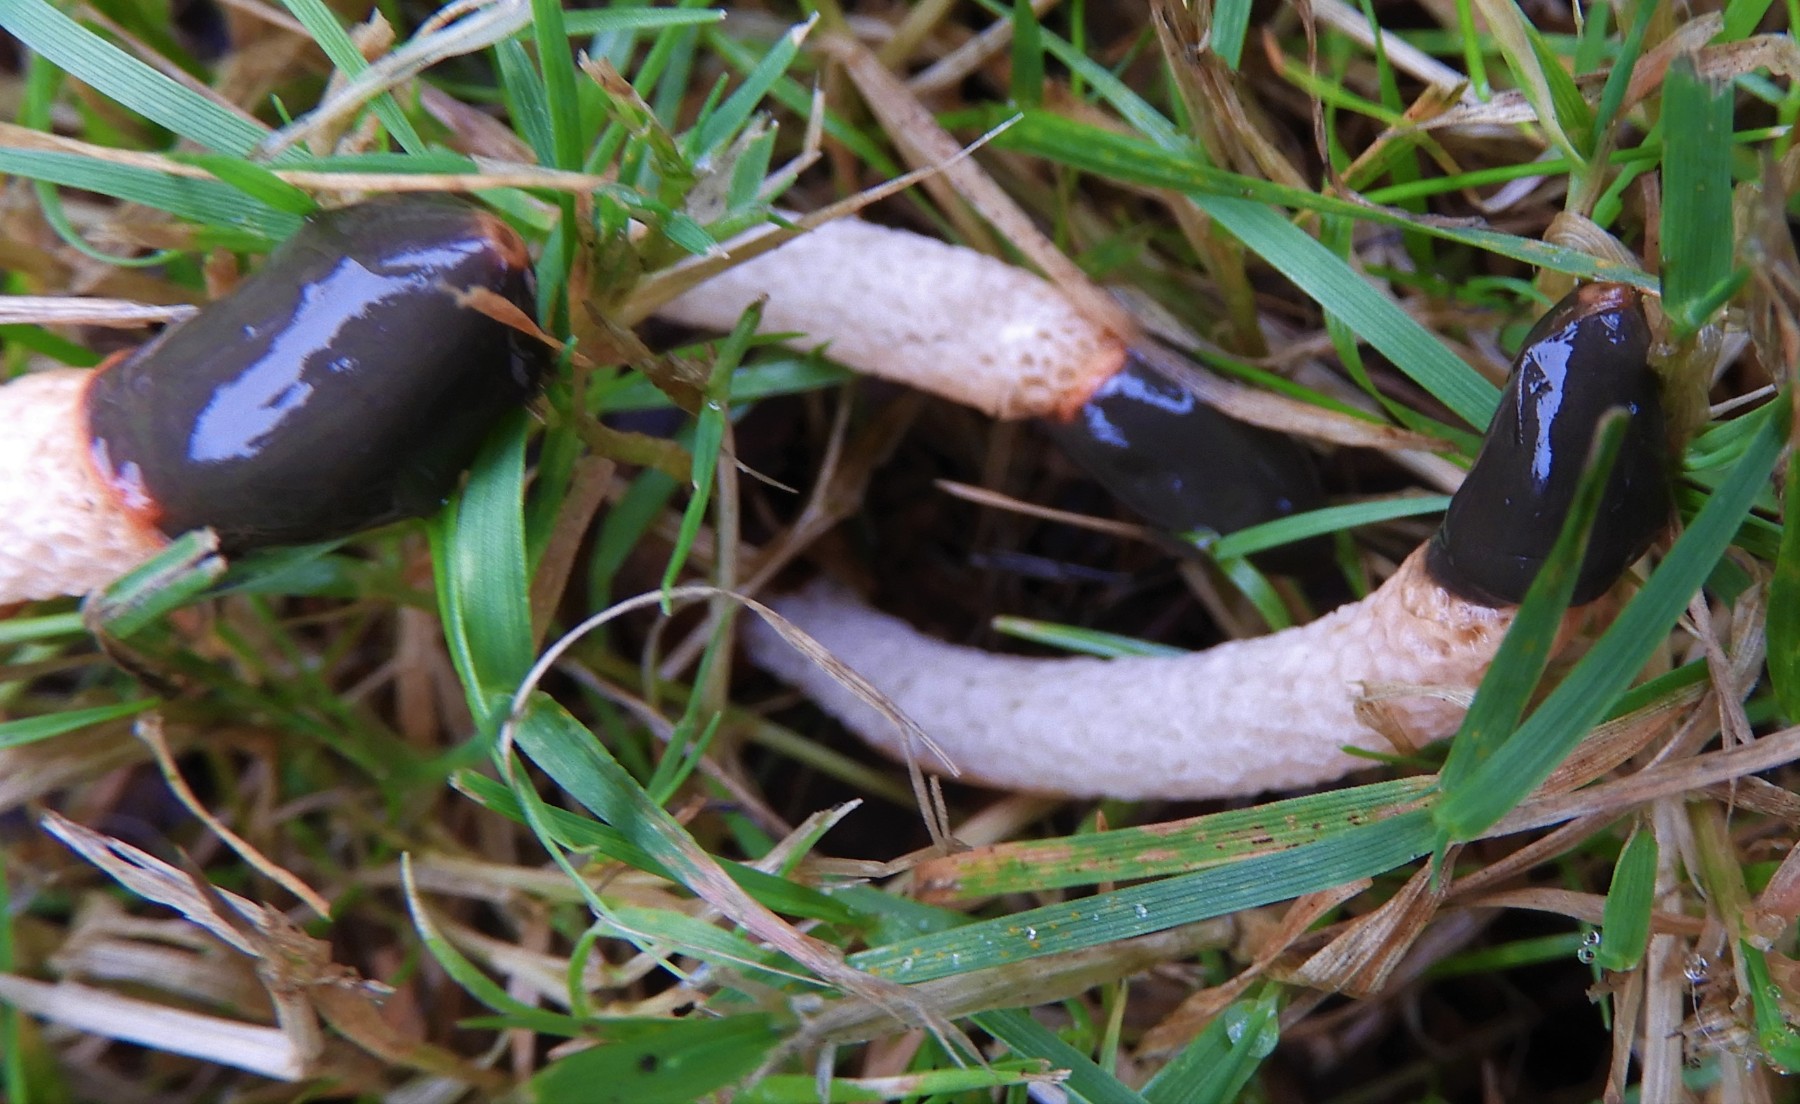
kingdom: Fungi
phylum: Basidiomycota
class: Agaricomycetes
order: Phallales
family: Phallaceae
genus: Mutinus
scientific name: Mutinus caninus
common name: hunde-stinksvamp
